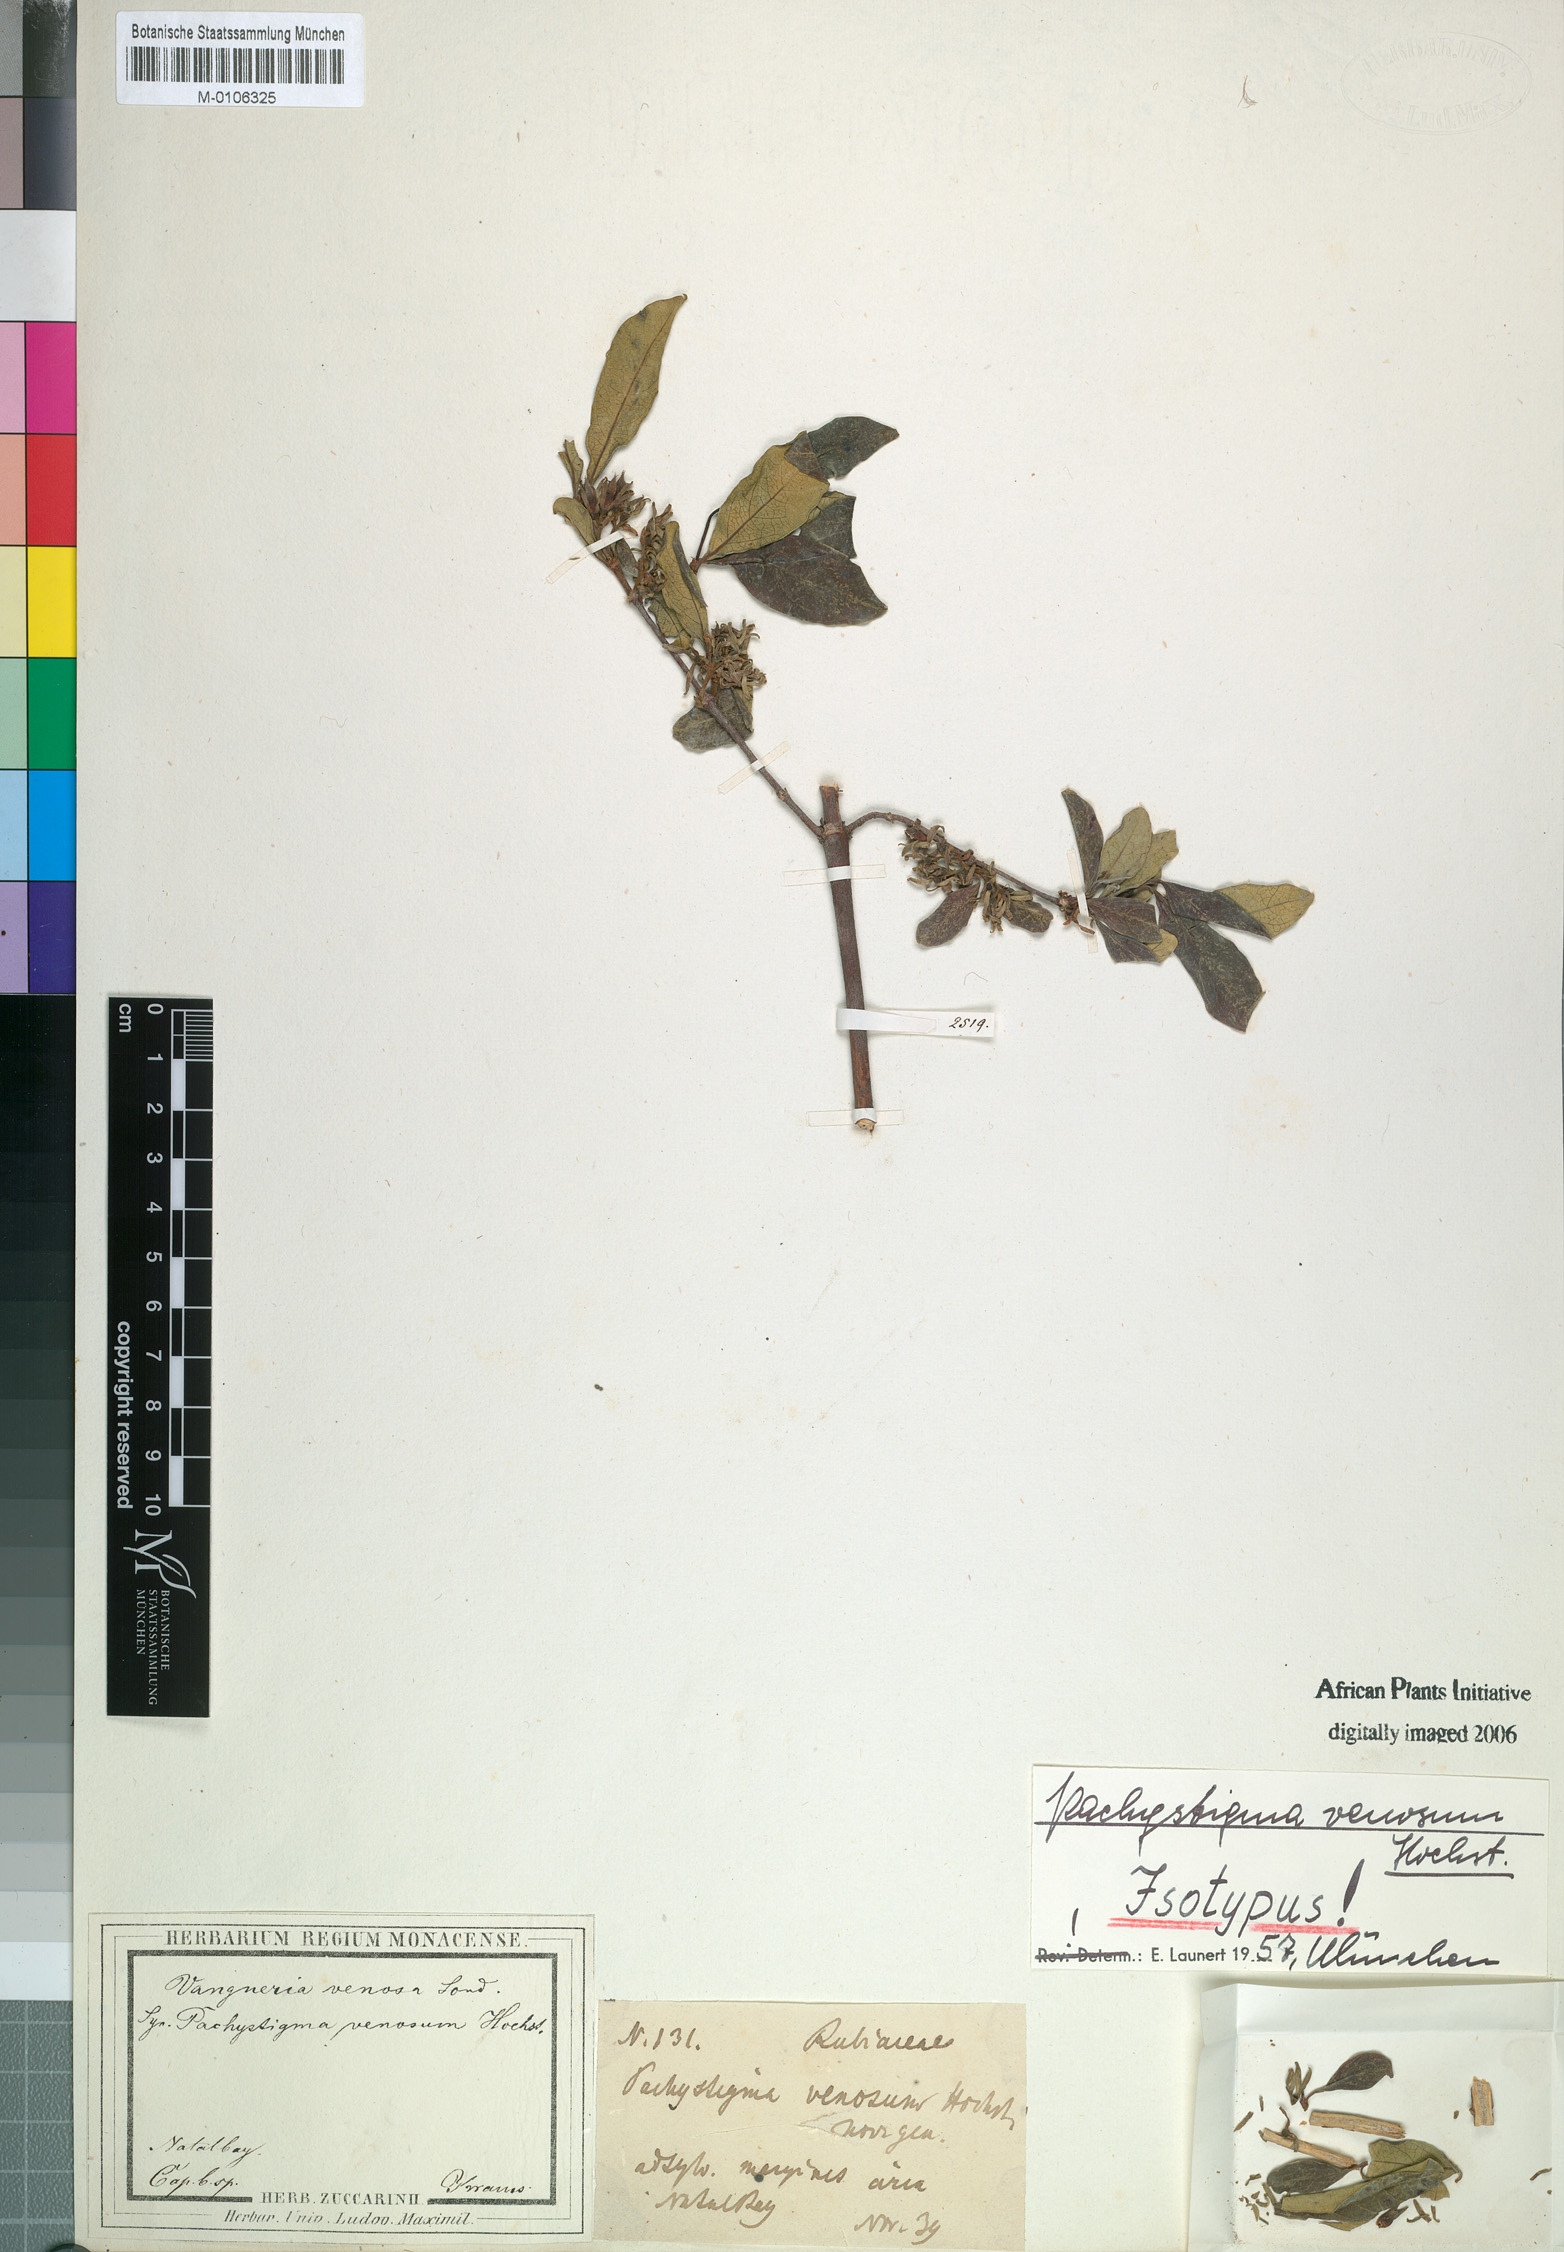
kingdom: Plantae
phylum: Tracheophyta
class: Magnoliopsida
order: Gentianales
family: Rubiaceae
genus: Vangueria
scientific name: Vangueria venosa
